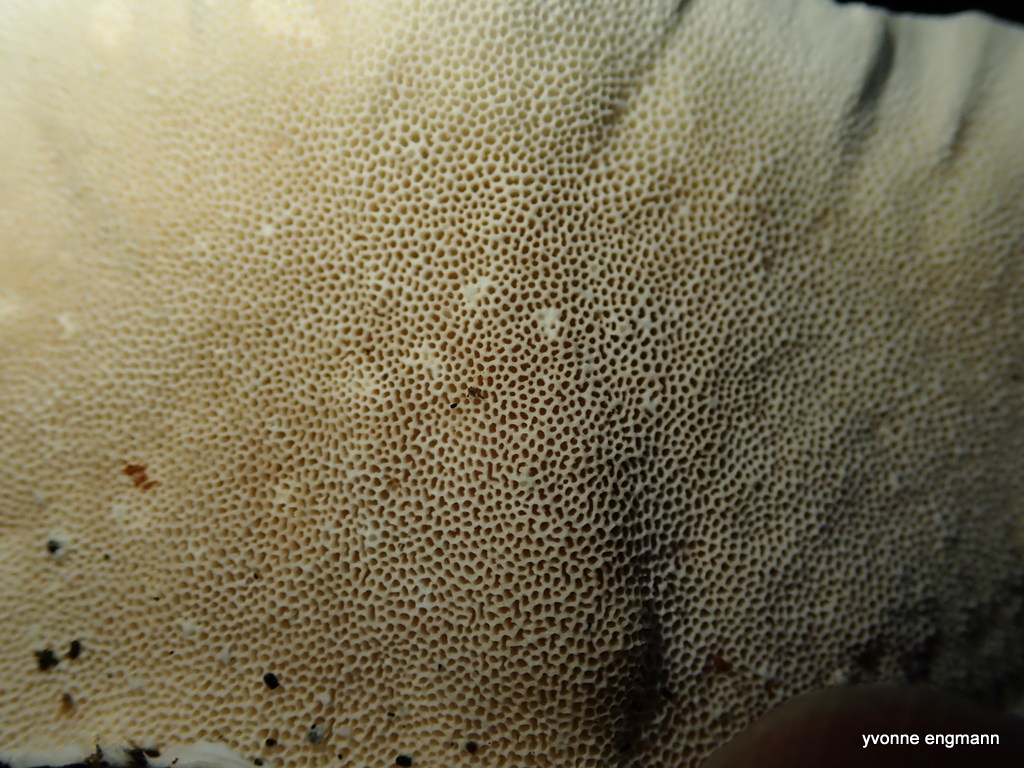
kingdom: Fungi
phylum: Basidiomycota
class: Agaricomycetes
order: Polyporales
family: Polyporaceae
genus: Trametes
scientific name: Trametes hirsuta
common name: håret læderporesvamp
